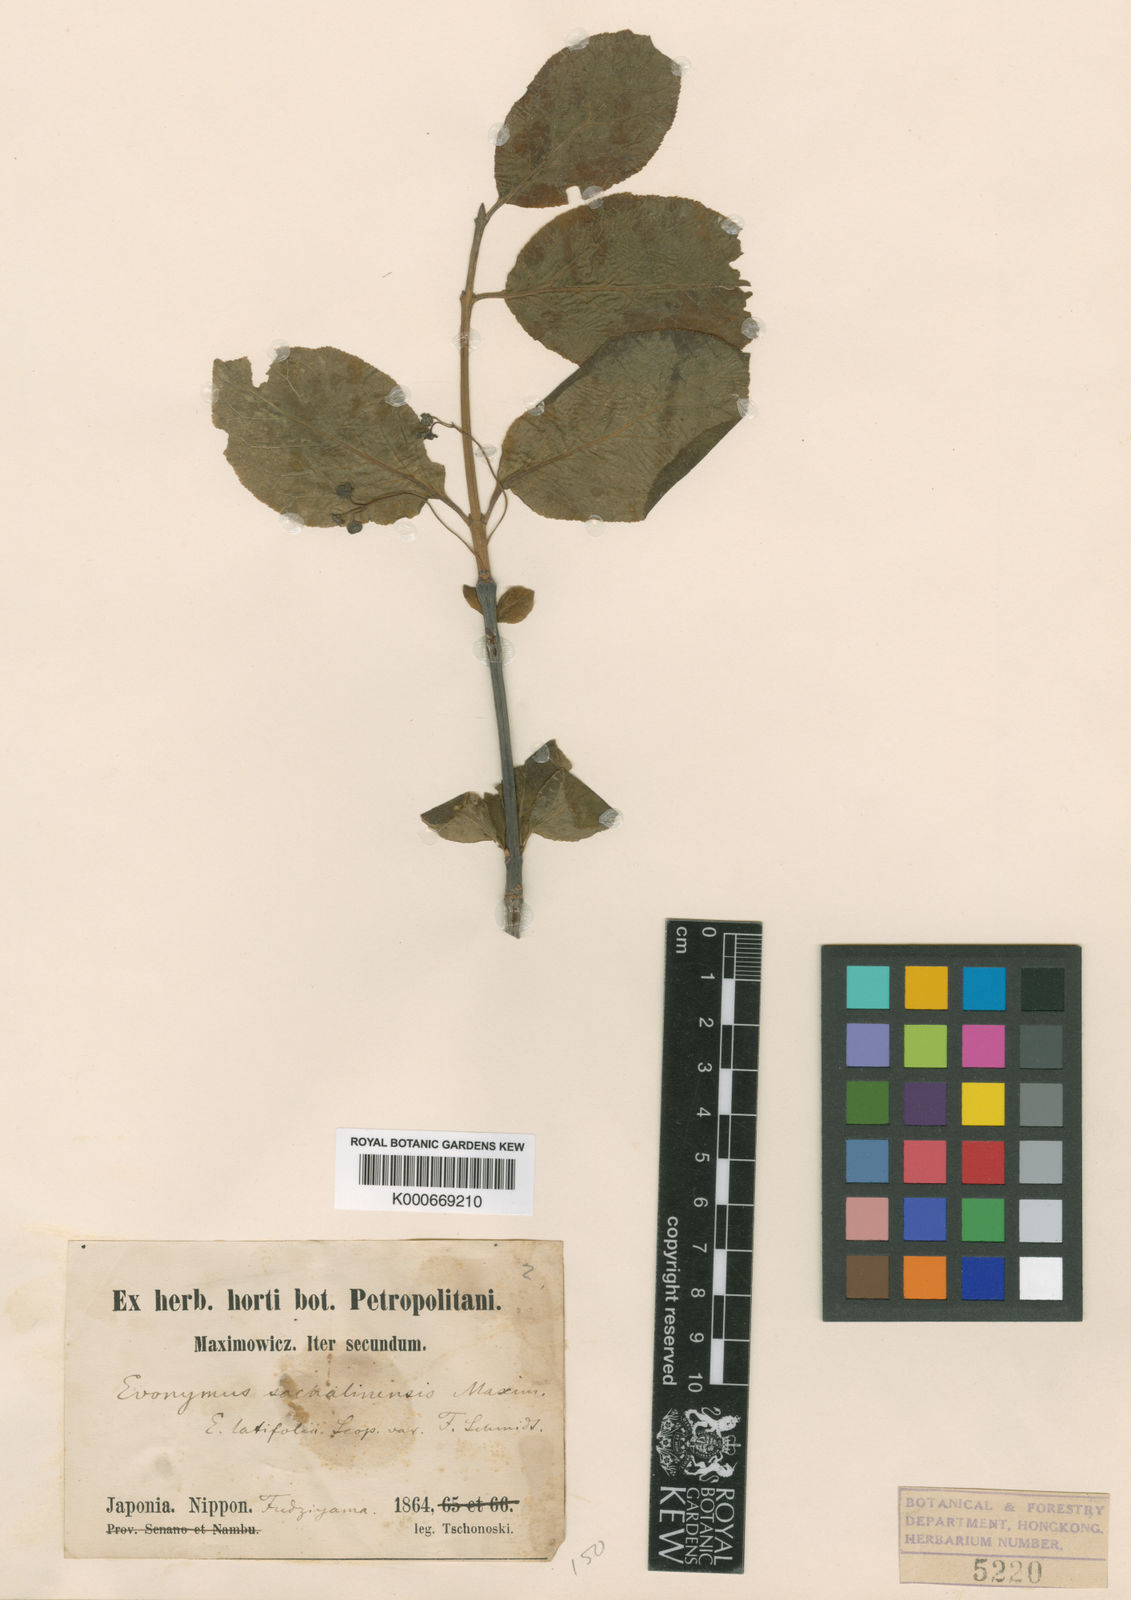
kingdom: Plantae
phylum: Tracheophyta
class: Magnoliopsida
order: Celastrales
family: Celastraceae
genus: Euonymus
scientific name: Euonymus sachalinensis
